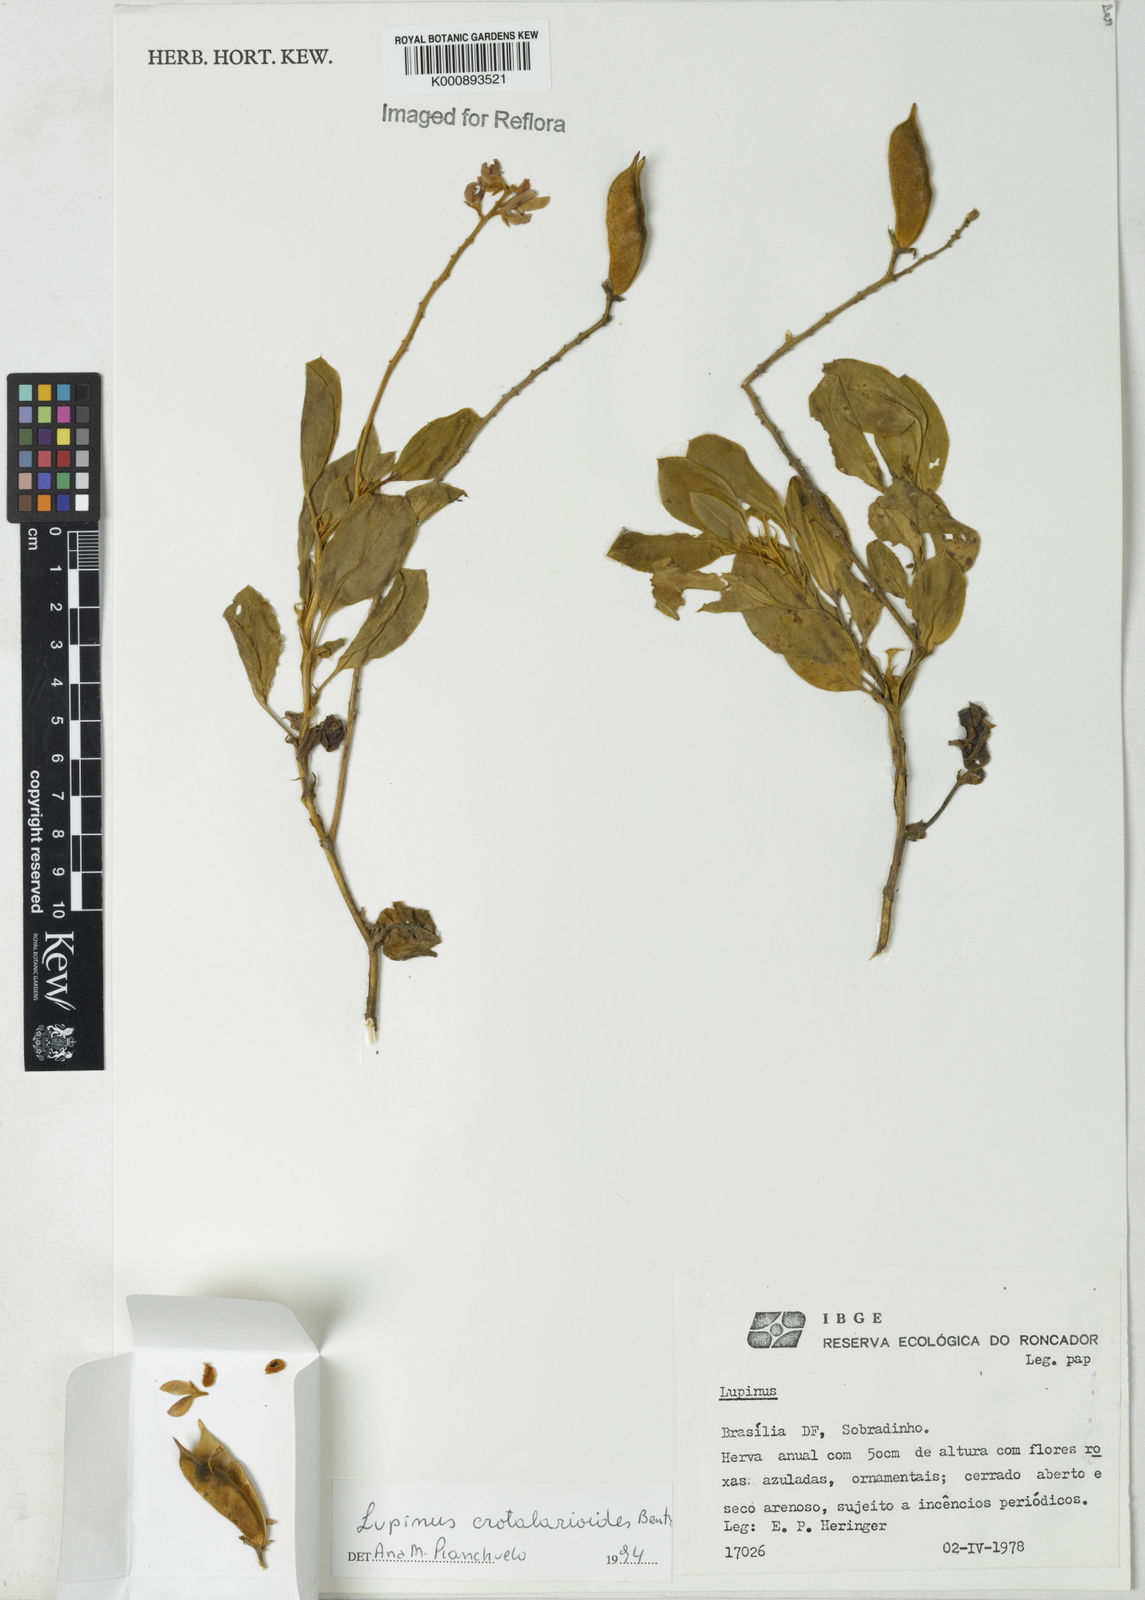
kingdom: Plantae
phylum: Tracheophyta
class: Magnoliopsida
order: Fabales
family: Fabaceae
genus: Lupinus
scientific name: Lupinus crotalarioides
